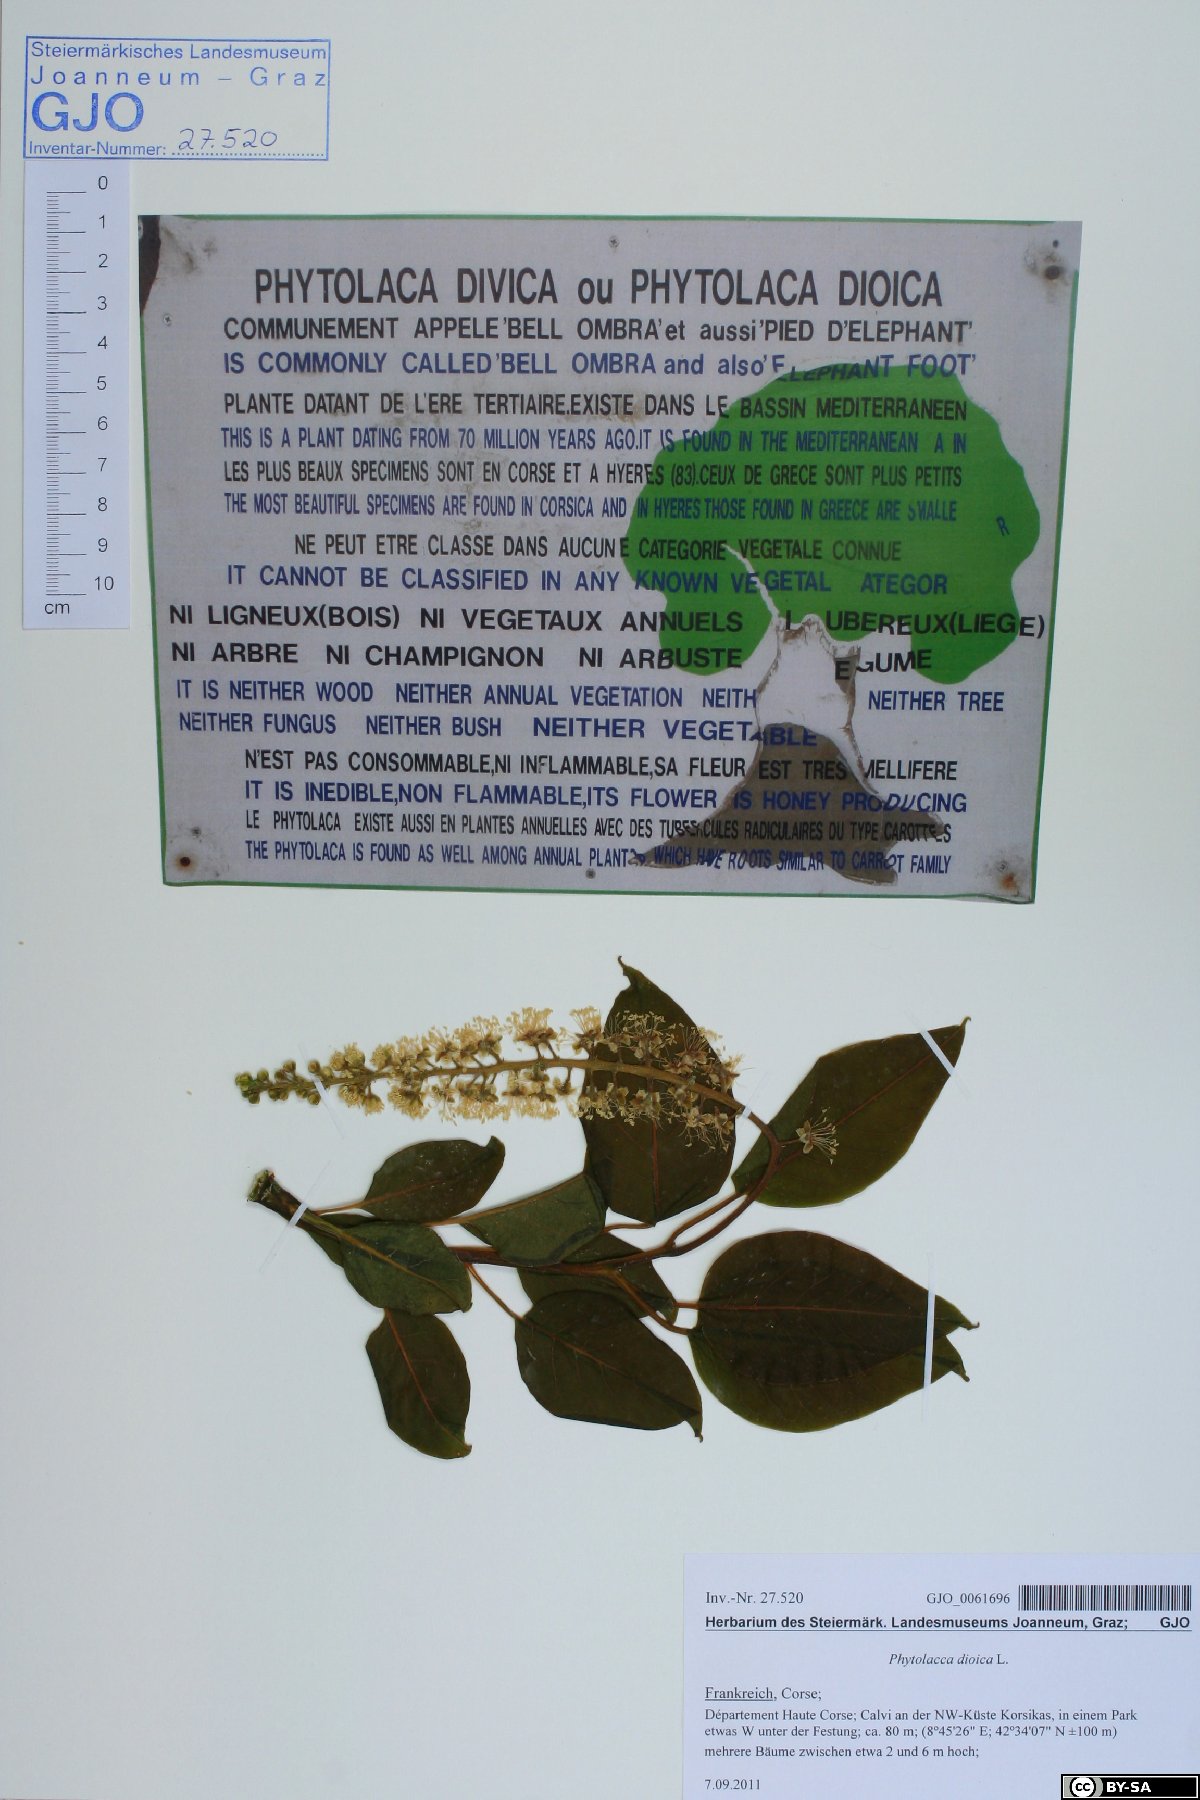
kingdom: Plantae
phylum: Tracheophyta
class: Magnoliopsida
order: Caryophyllales
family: Phytolaccaceae
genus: Phytolacca
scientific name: Phytolacca dioica
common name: Pokeweed
